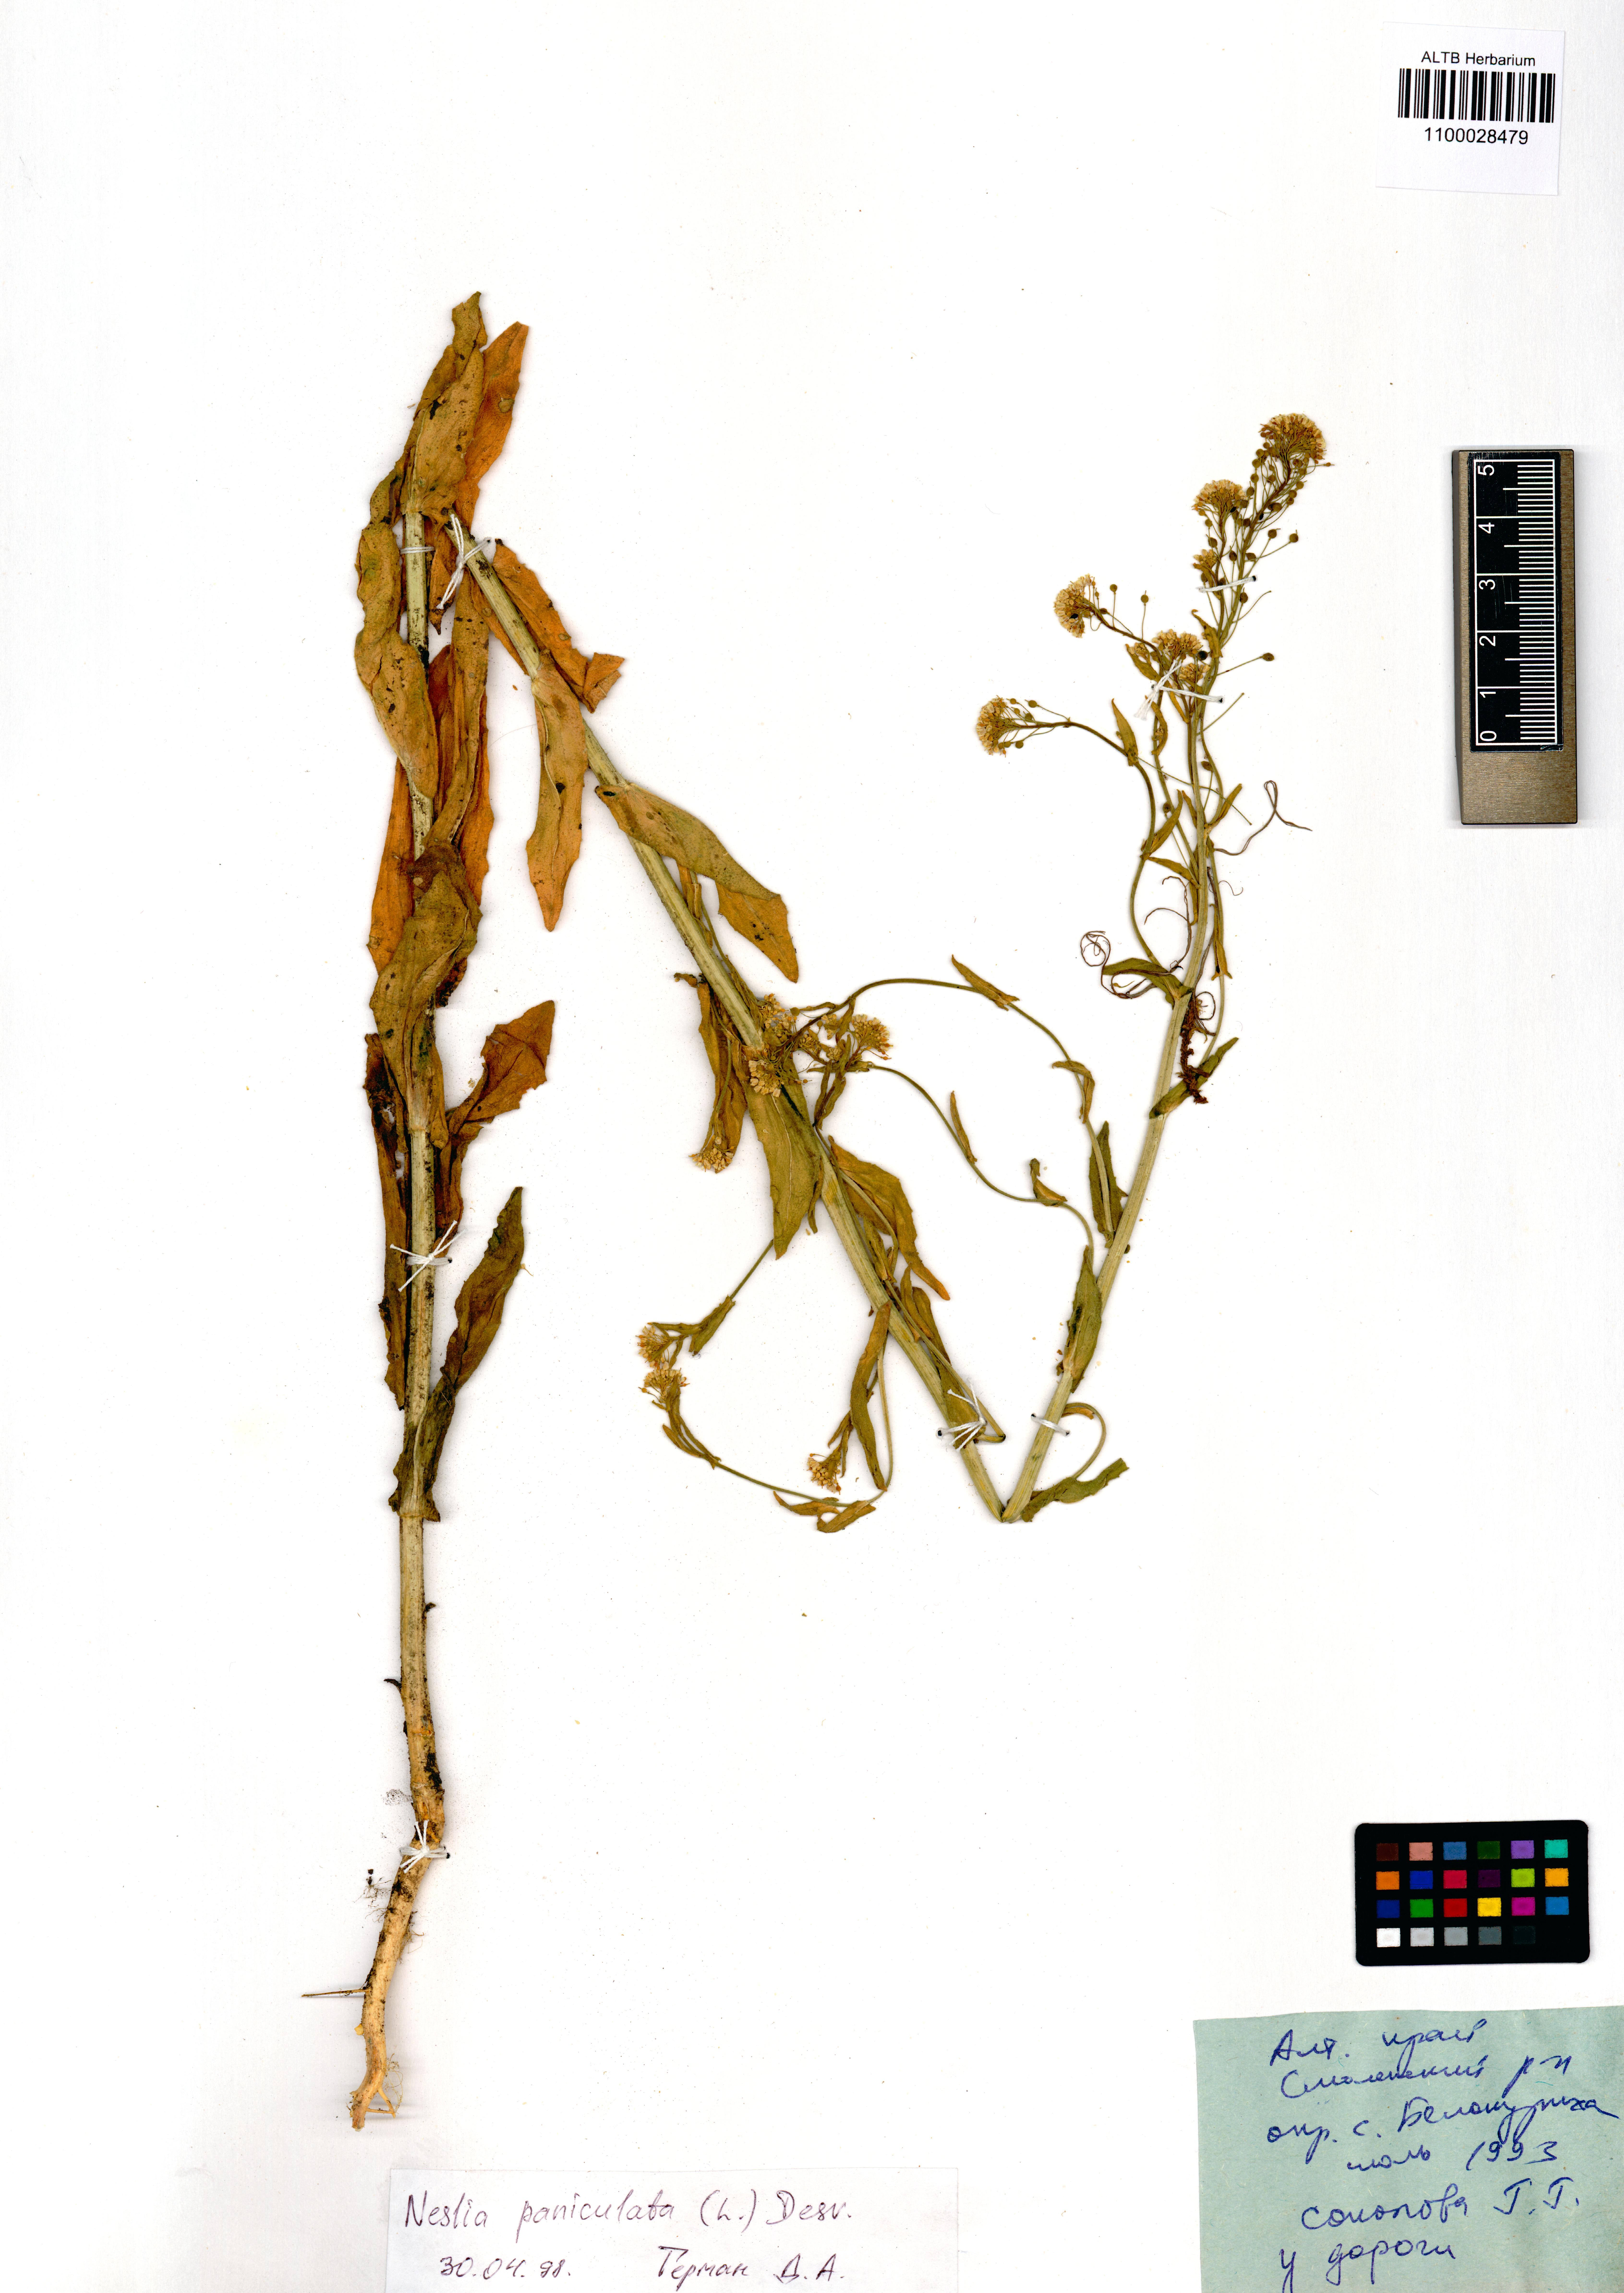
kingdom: Plantae
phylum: Tracheophyta
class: Magnoliopsida
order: Brassicales
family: Brassicaceae
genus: Neslia
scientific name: Neslia paniculata
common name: Ball mustard
